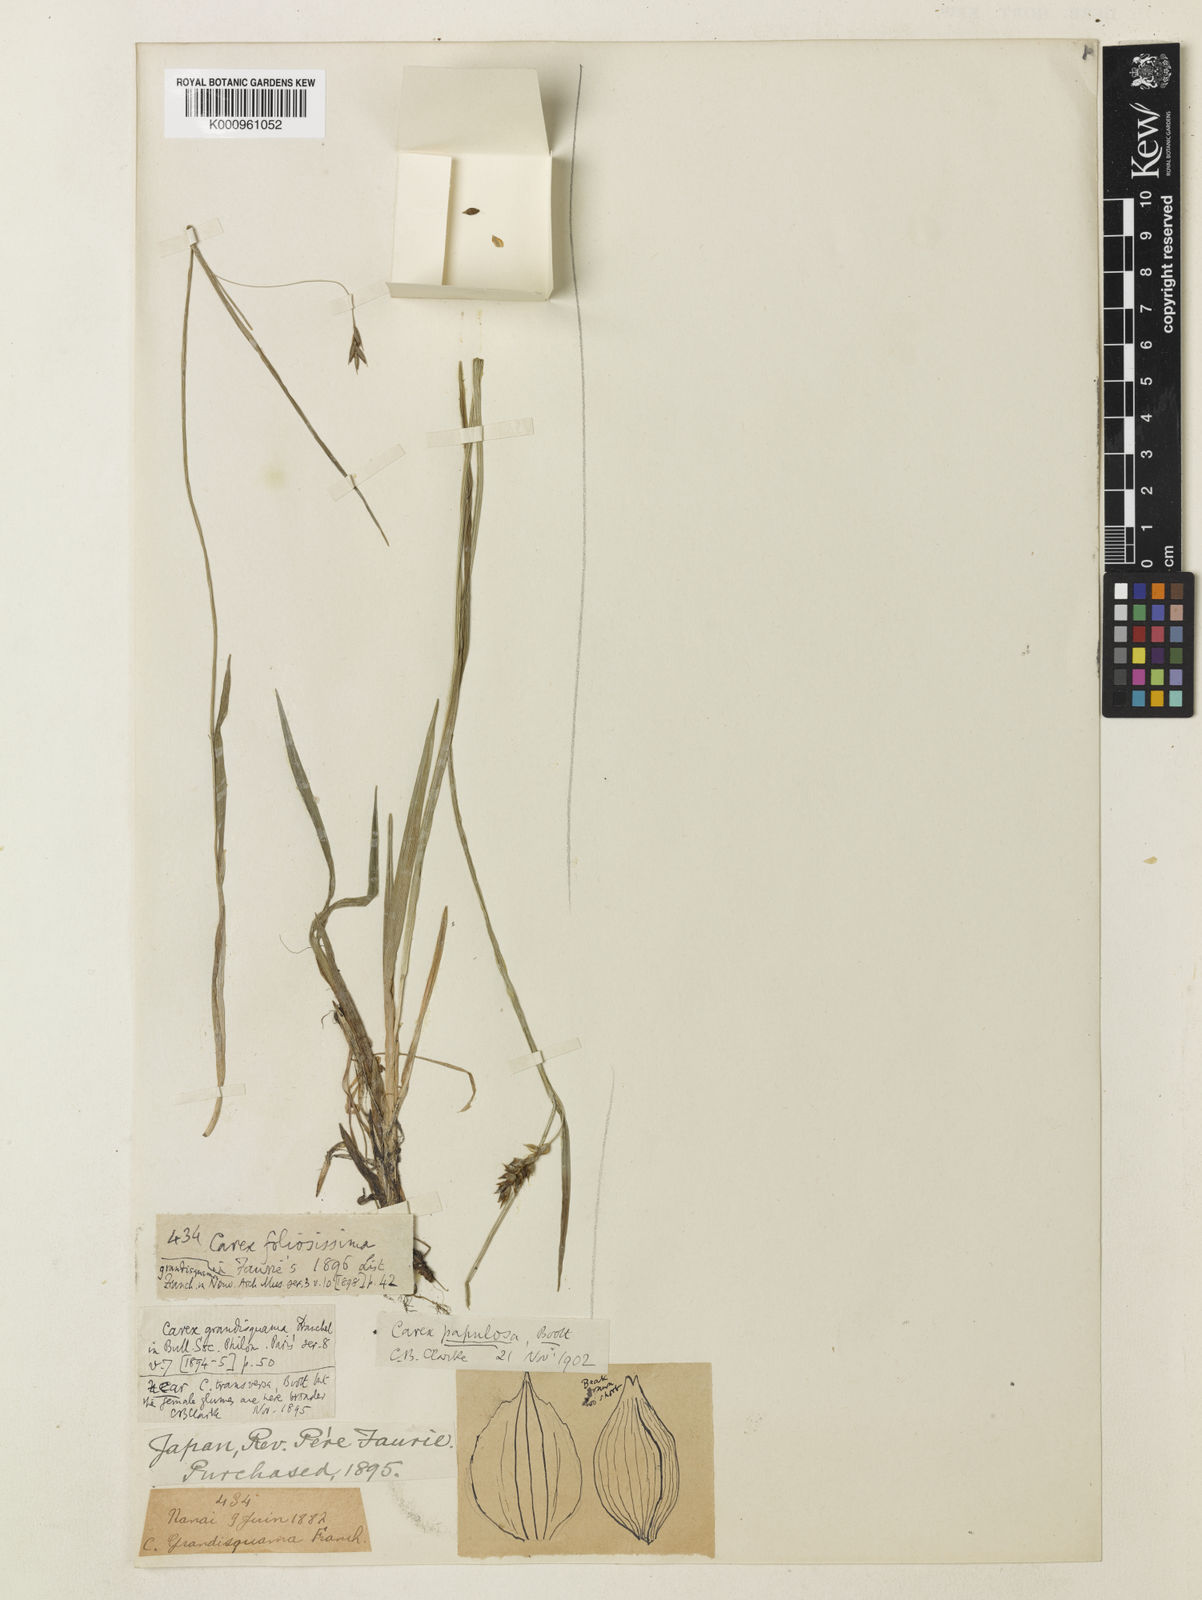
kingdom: Plantae
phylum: Tracheophyta
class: Liliopsida
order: Poales
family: Cyperaceae
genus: Carex
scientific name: Carex papulosa
